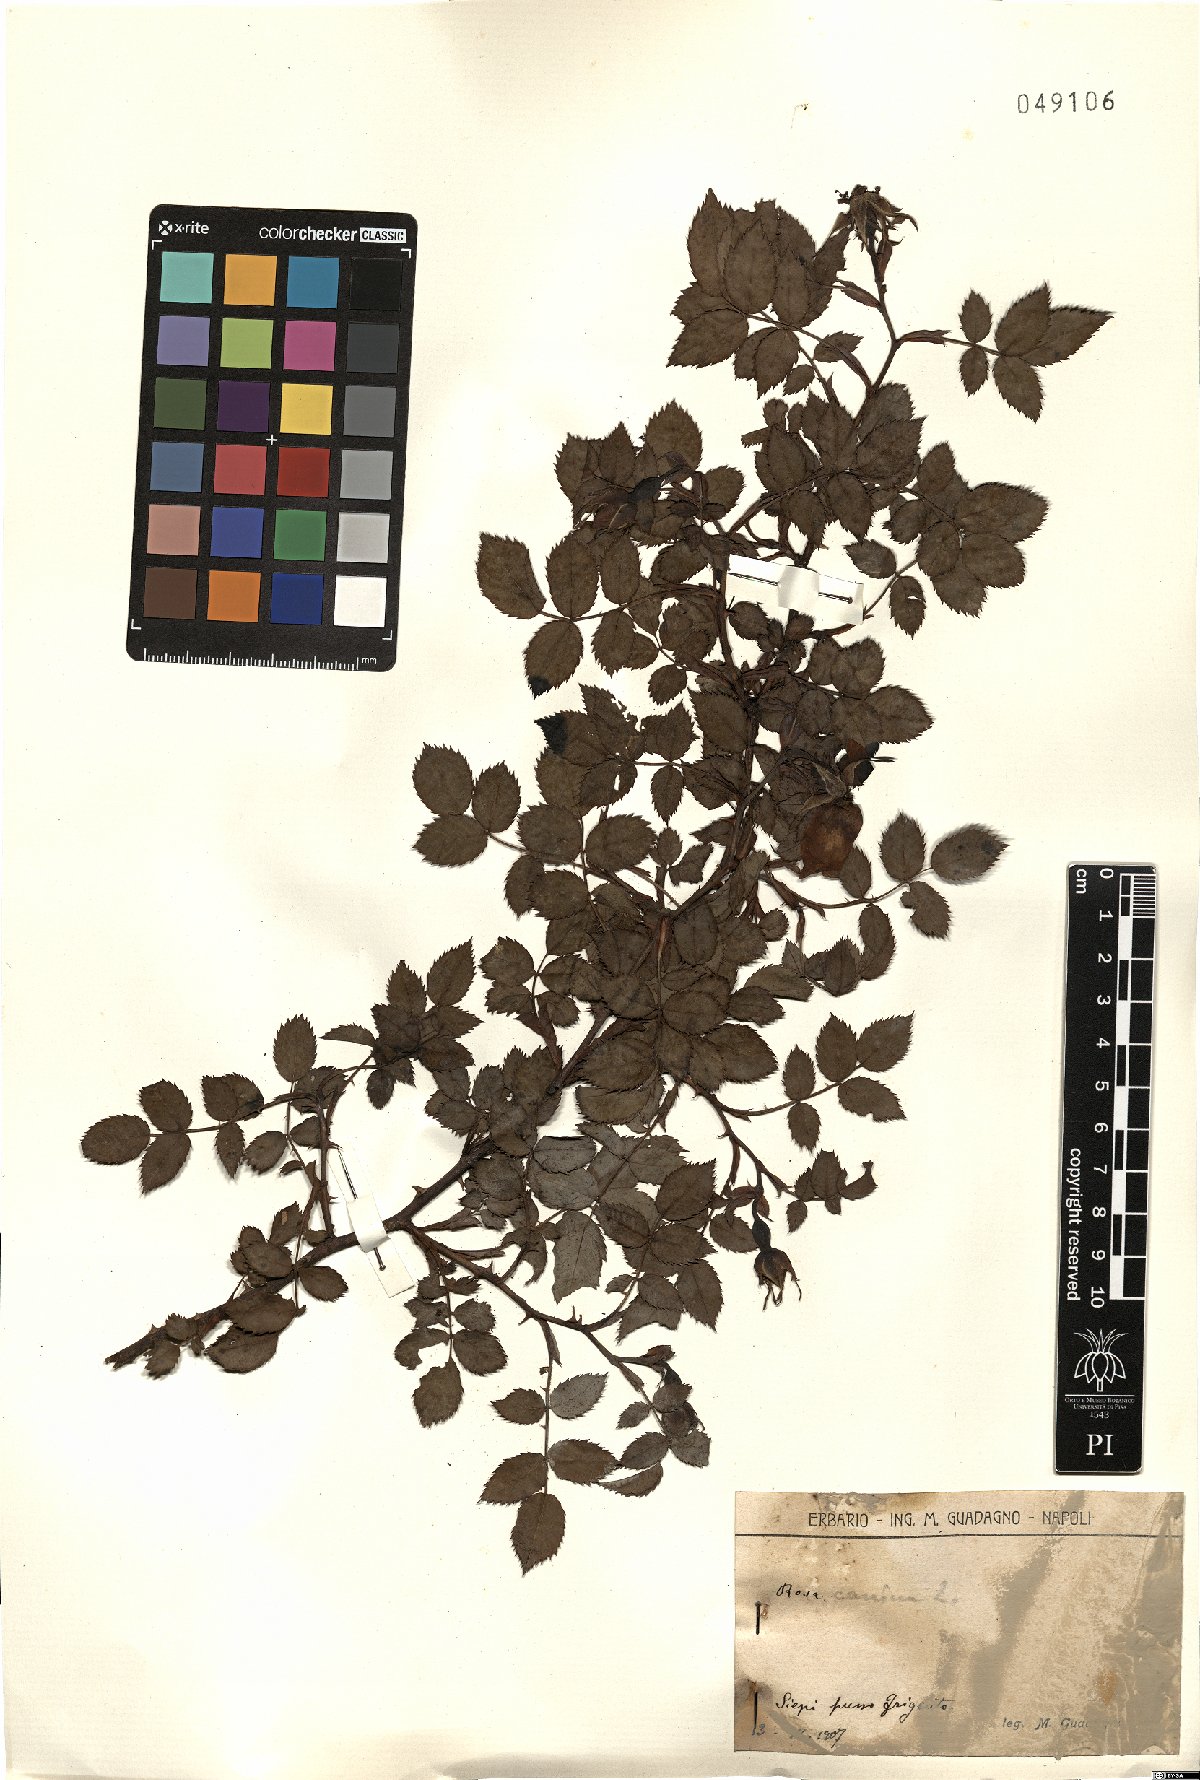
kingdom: Plantae
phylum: Tracheophyta
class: Magnoliopsida
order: Rosales
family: Rosaceae
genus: Rosa
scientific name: Rosa canina
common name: Dog rose
